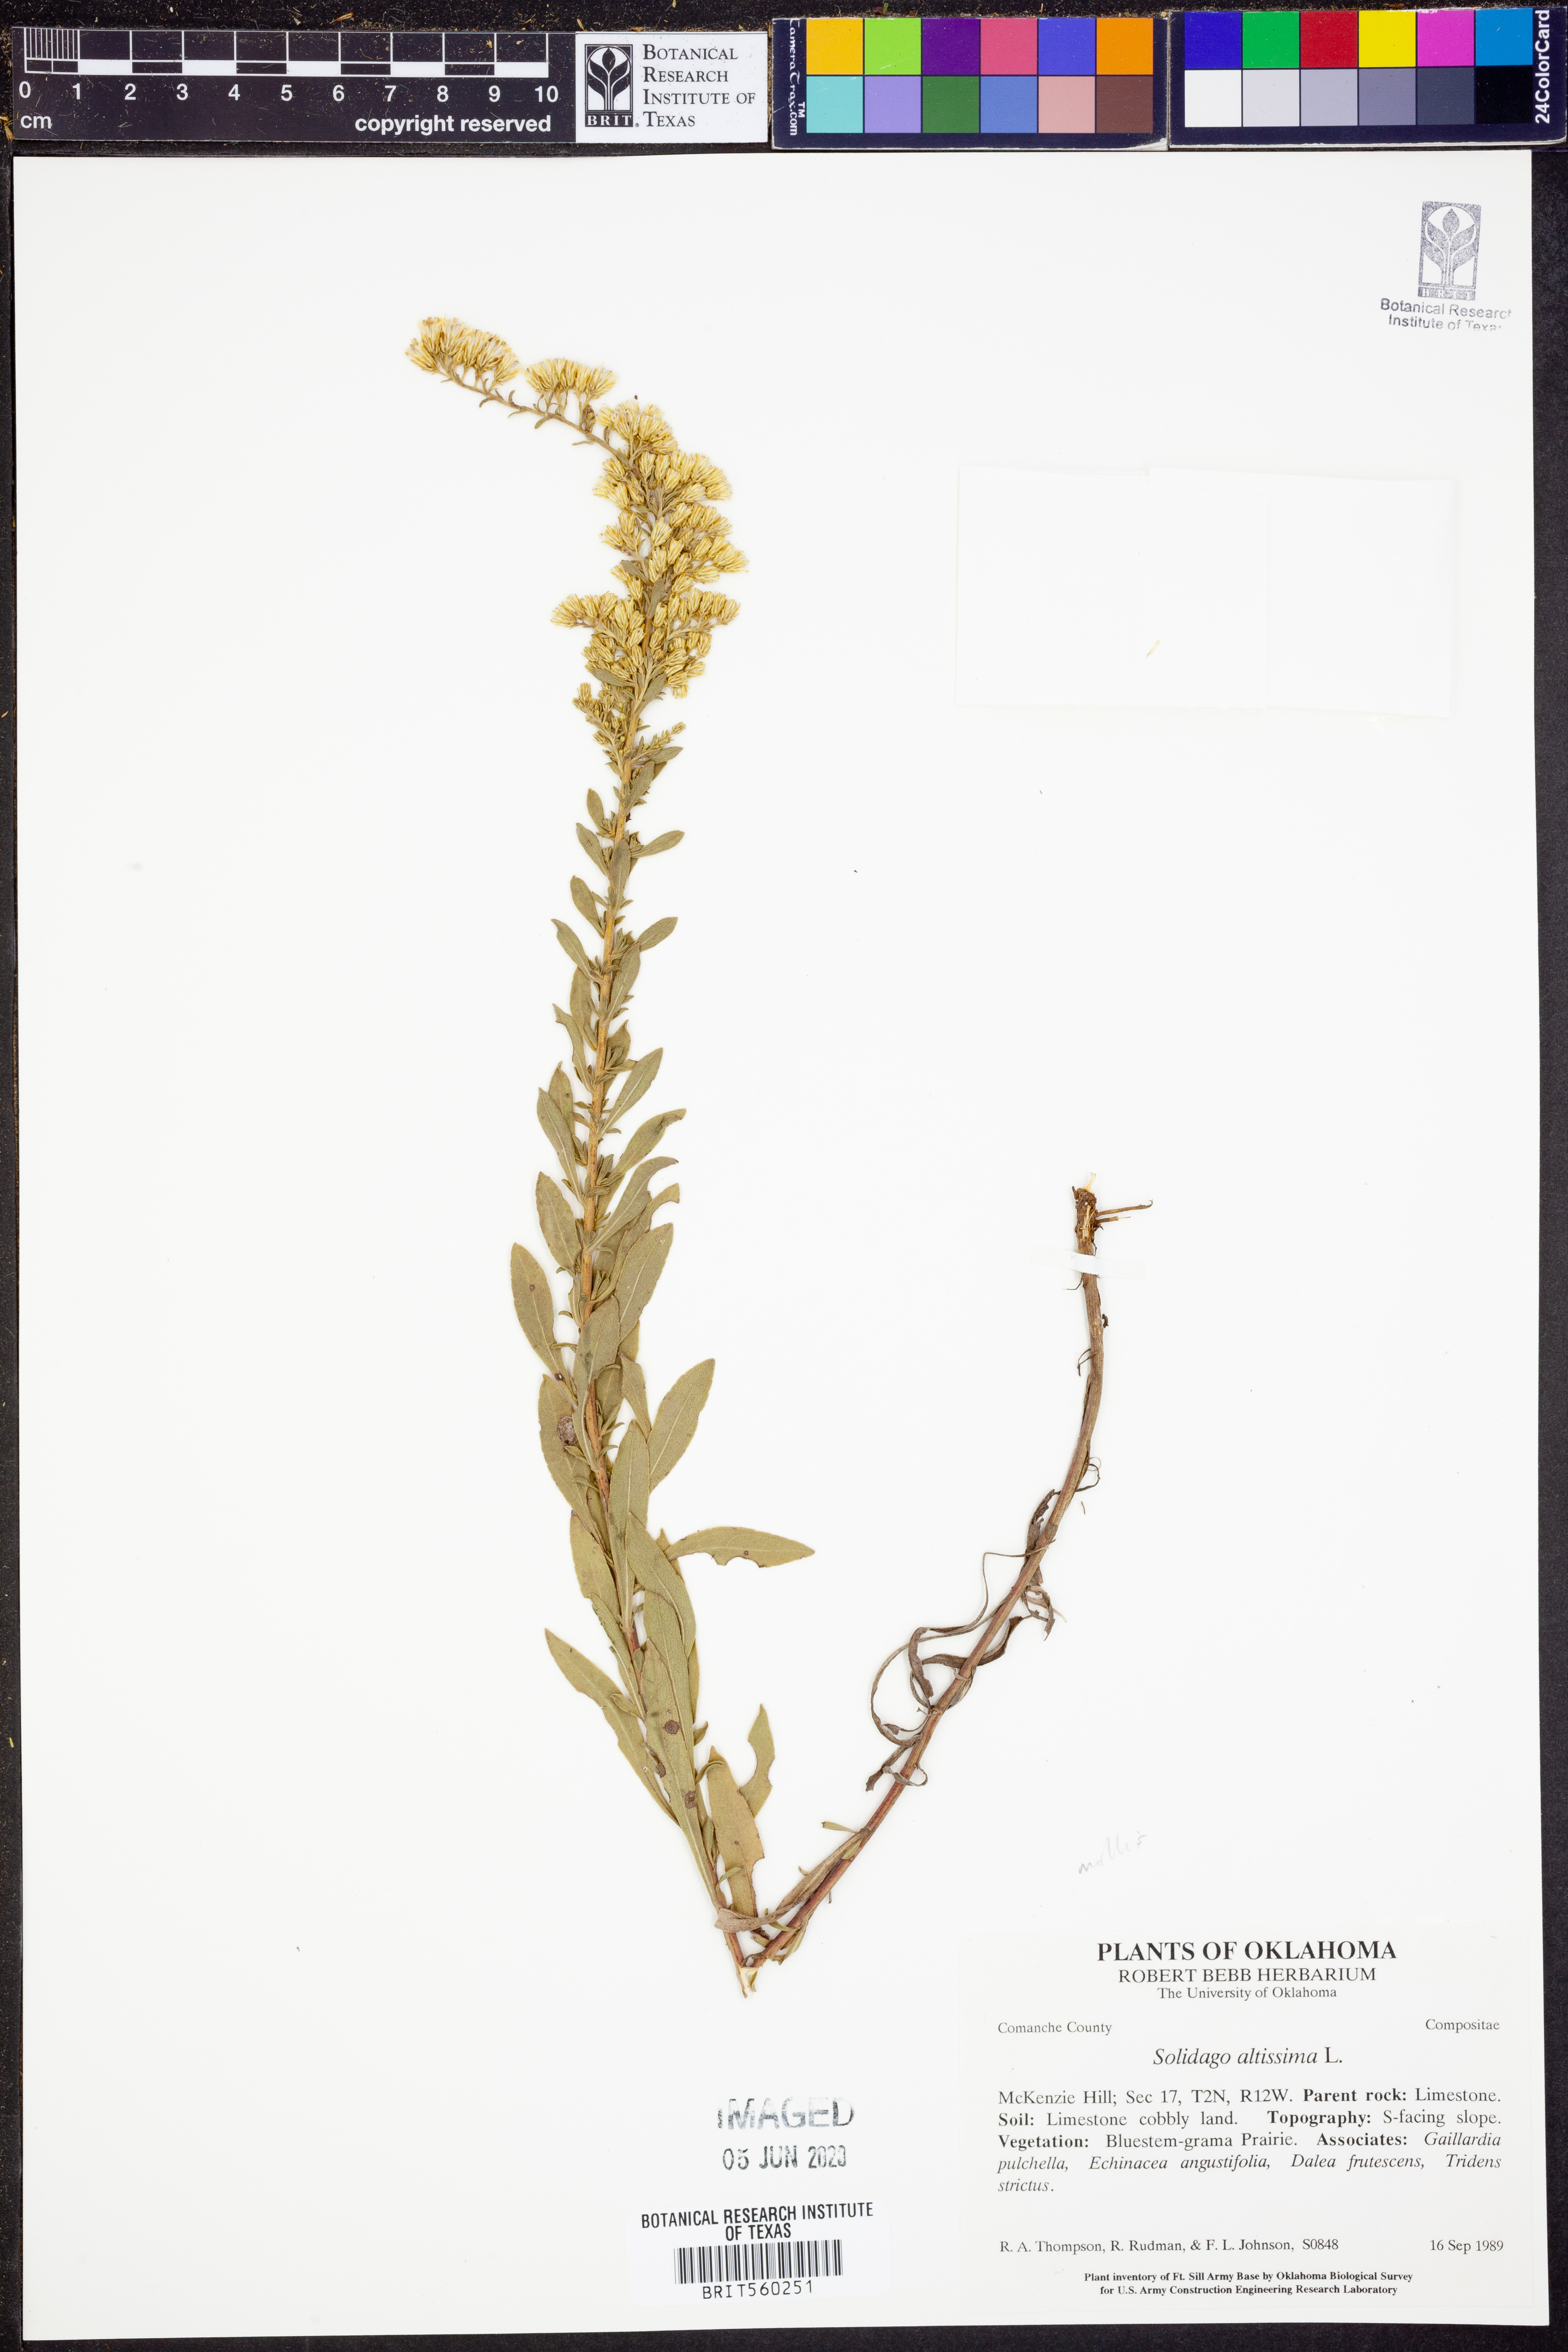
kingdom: Plantae
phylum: Tracheophyta
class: Magnoliopsida
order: Asterales
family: Asteraceae
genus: Solidago
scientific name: Solidago altissima
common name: Late goldenrod
